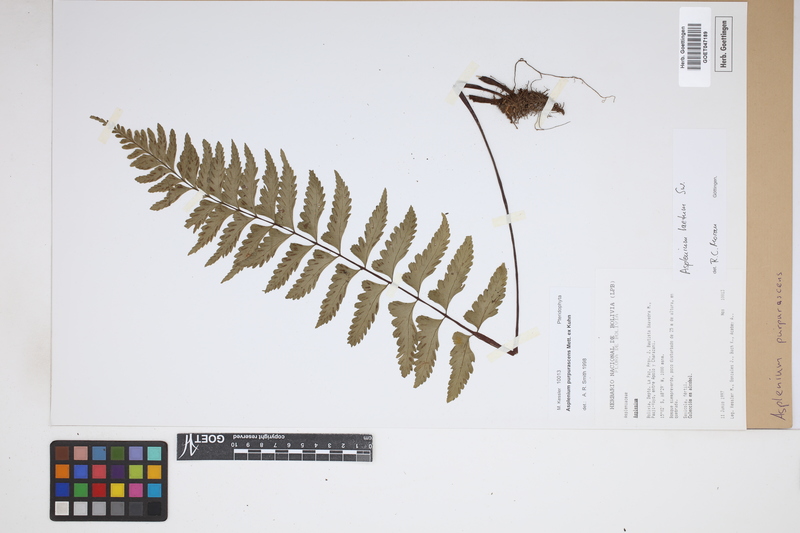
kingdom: Plantae
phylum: Tracheophyta
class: Polypodiopsida
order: Polypodiales
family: Aspleniaceae
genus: Hymenasplenium
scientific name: Hymenasplenium purpurascens
